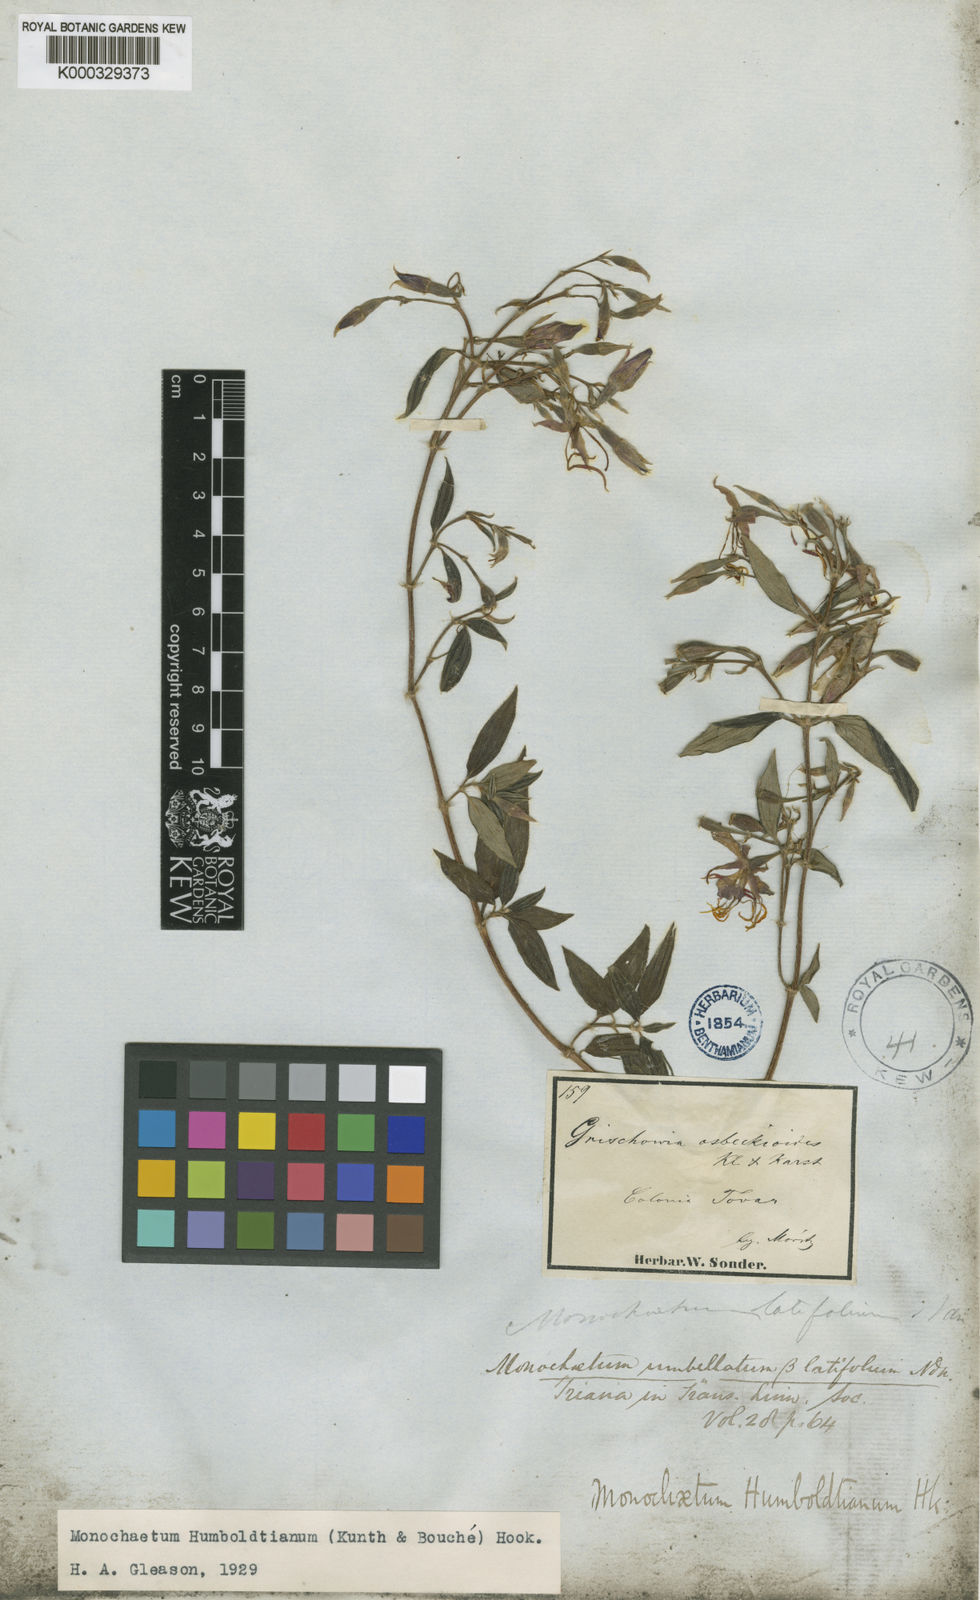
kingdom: Plantae
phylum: Tracheophyta
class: Magnoliopsida
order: Myrtales
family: Melastomataceae
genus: Monochaetum
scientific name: Monochaetum
